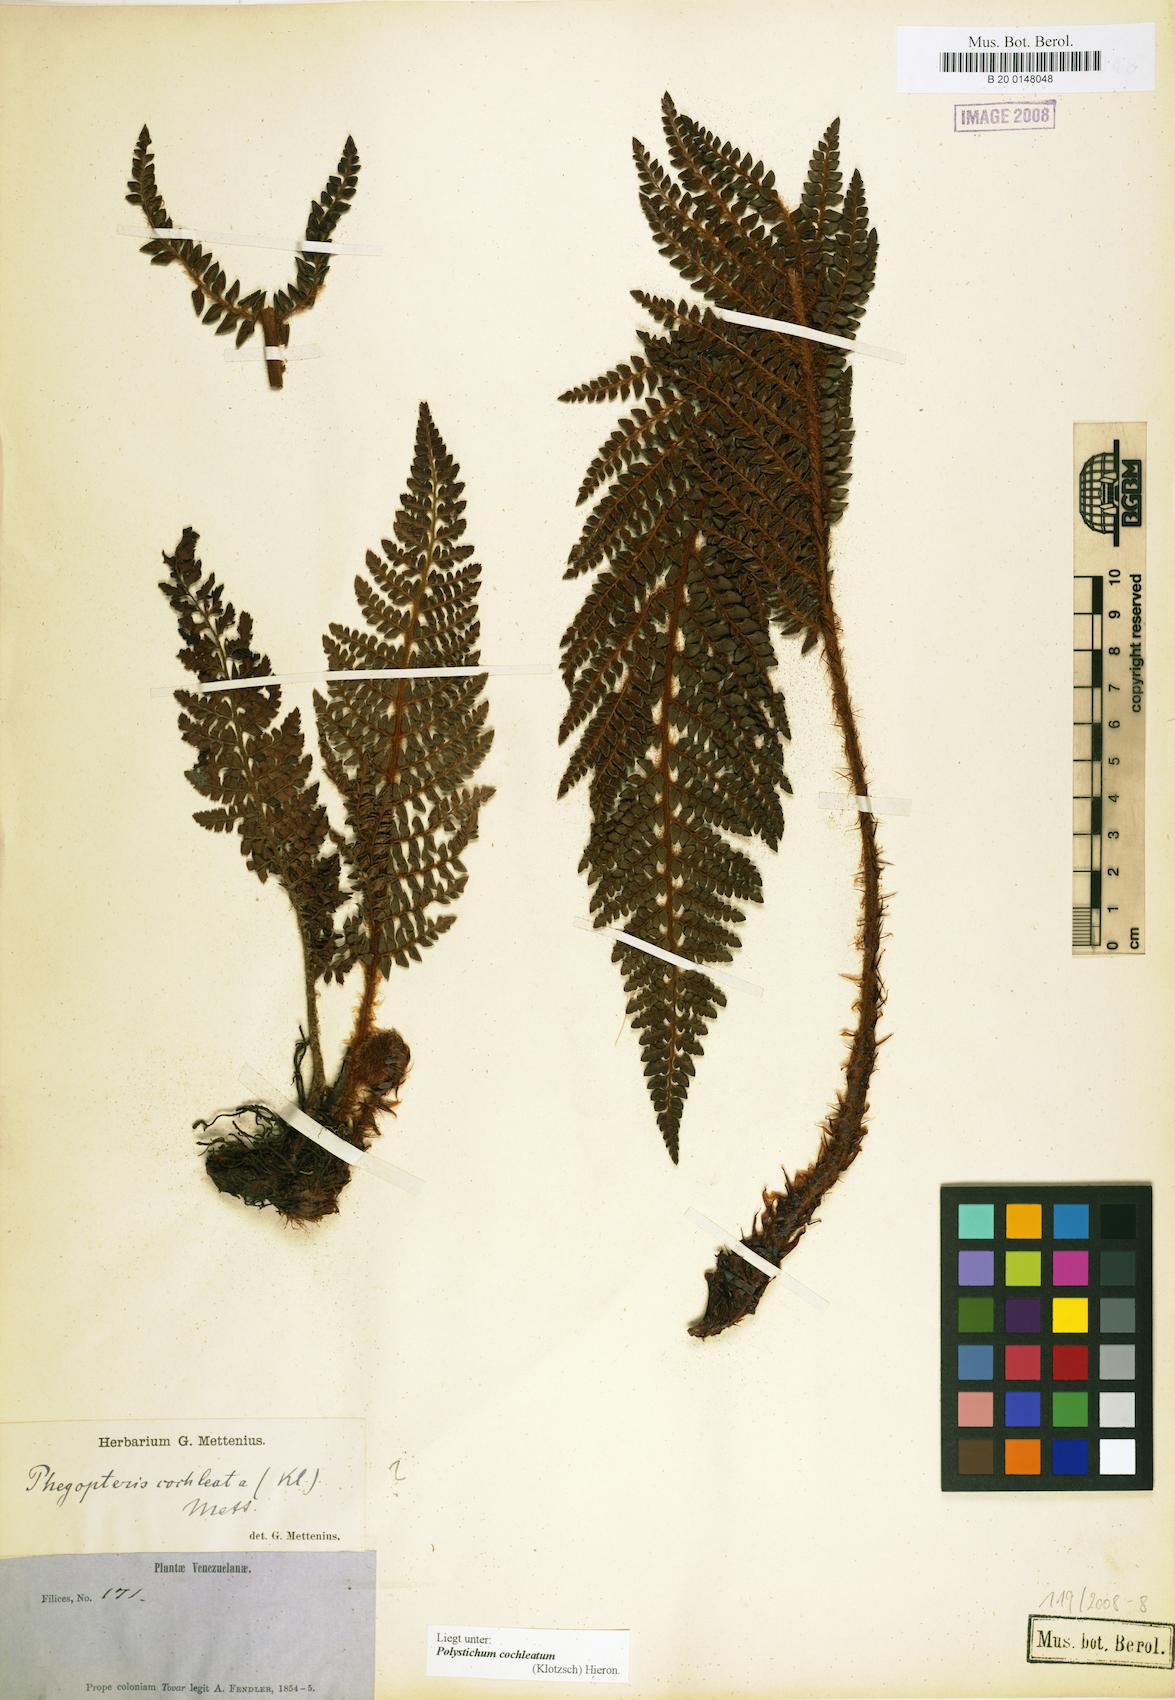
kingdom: Plantae
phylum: Tracheophyta
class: Polypodiopsida
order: Polypodiales
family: Dryopteridaceae
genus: Polystichum
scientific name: Polystichum cochleatum
